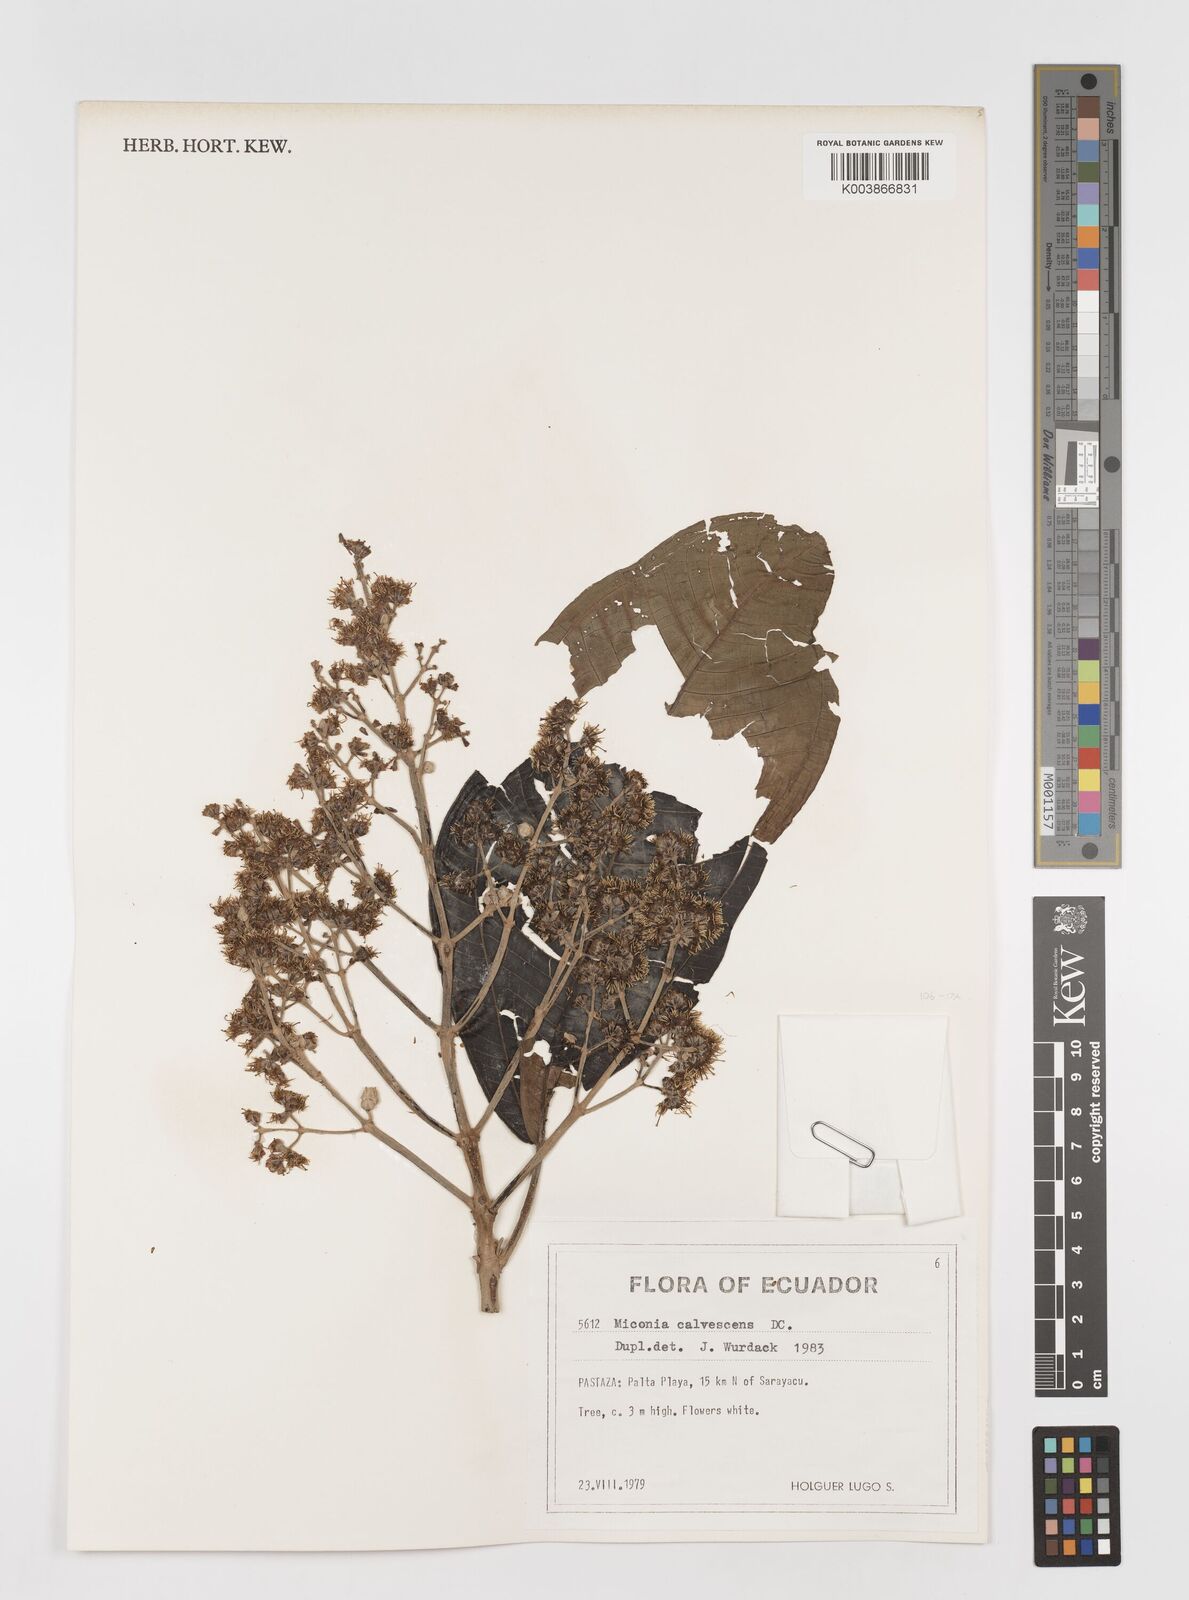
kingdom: Plantae
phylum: Tracheophyta
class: Magnoliopsida
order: Myrtales
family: Melastomataceae
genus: Miconia
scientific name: Miconia calvescens
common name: Purple plague
